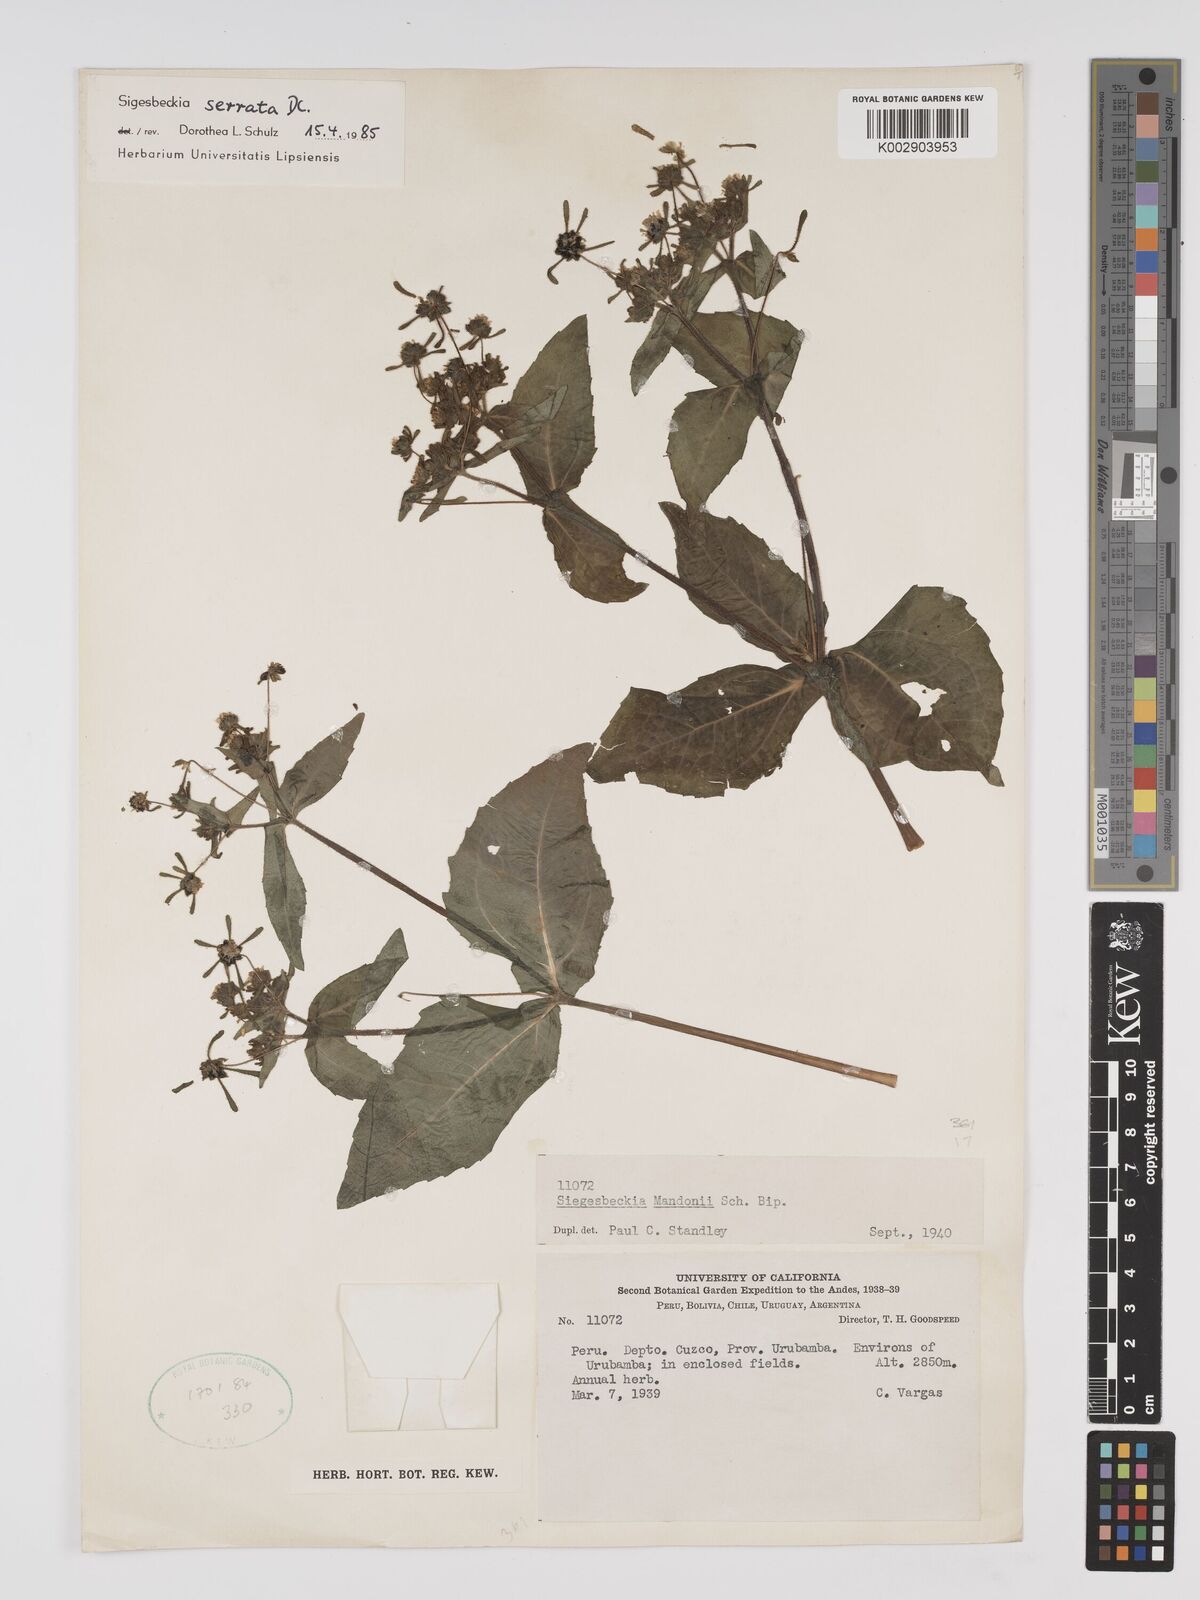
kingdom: Plantae
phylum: Tracheophyta
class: Magnoliopsida
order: Asterales
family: Asteraceae
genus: Sigesbeckia
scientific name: Sigesbeckia jorullensis
